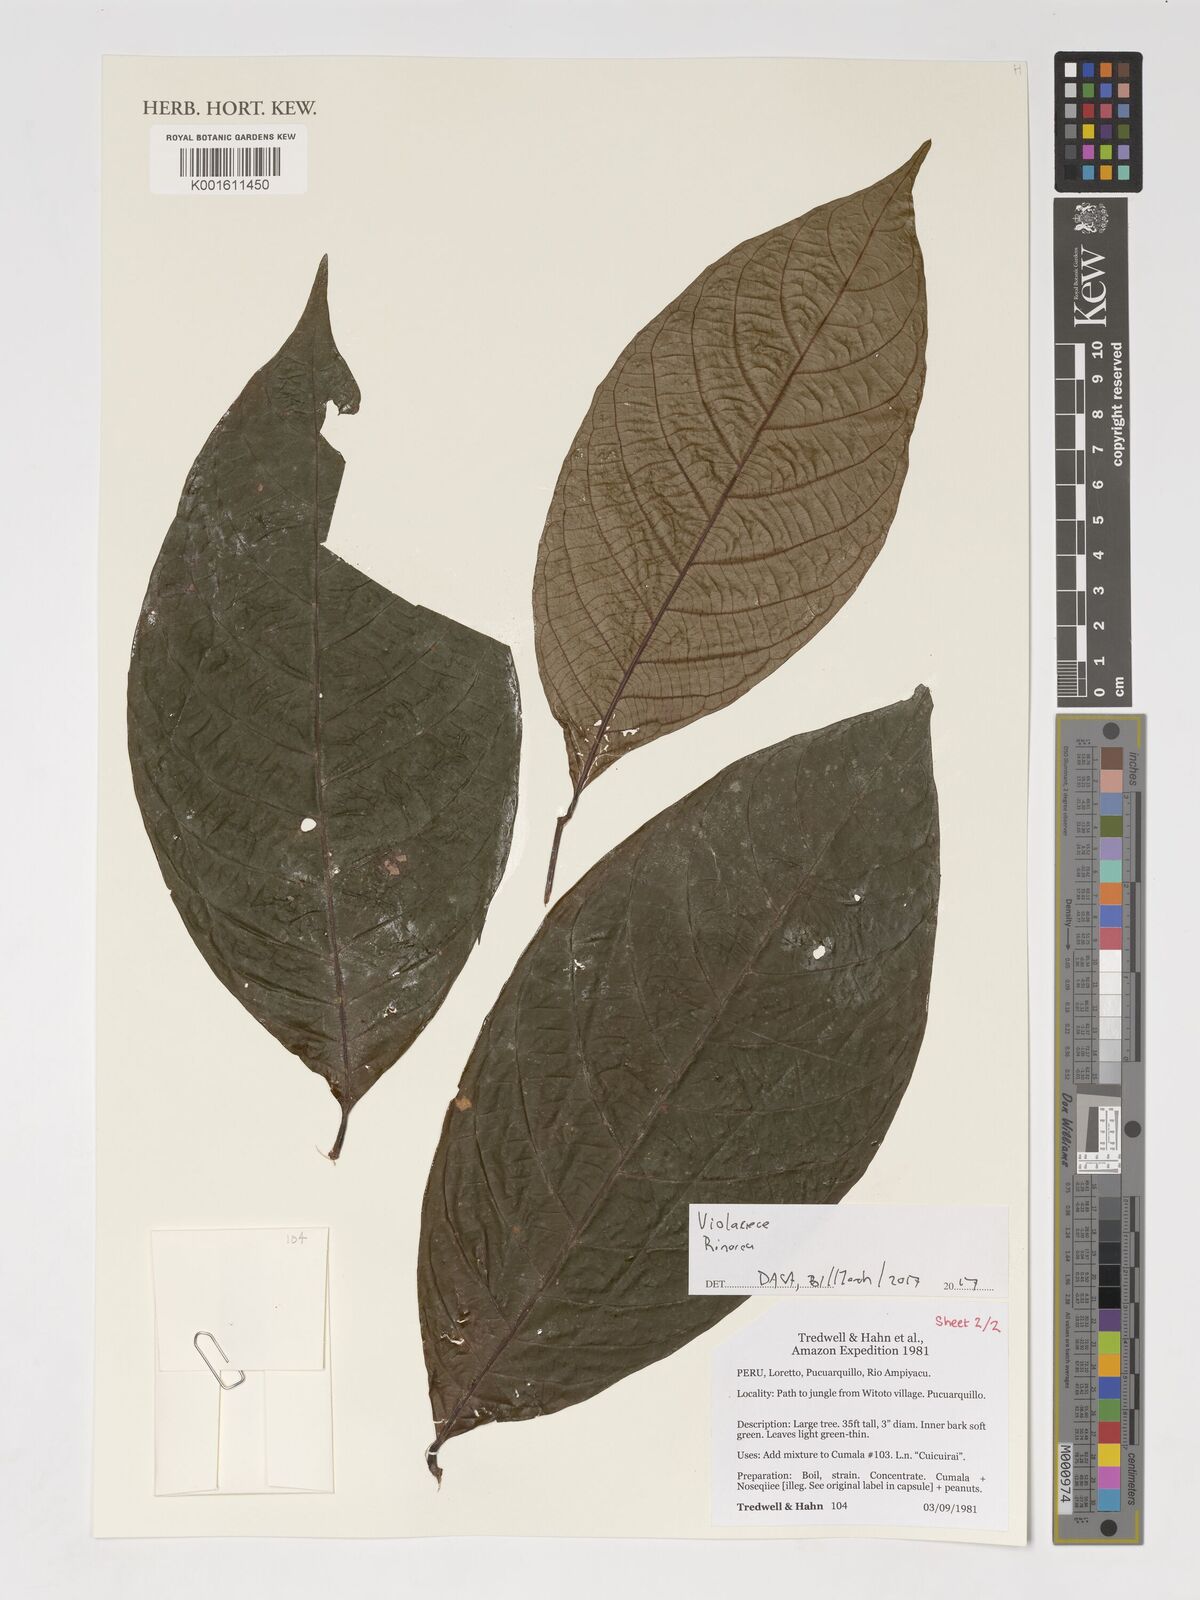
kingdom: Plantae
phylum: Tracheophyta
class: Magnoliopsida
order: Malpighiales
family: Violaceae
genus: Rinorea
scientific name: Rinorea
